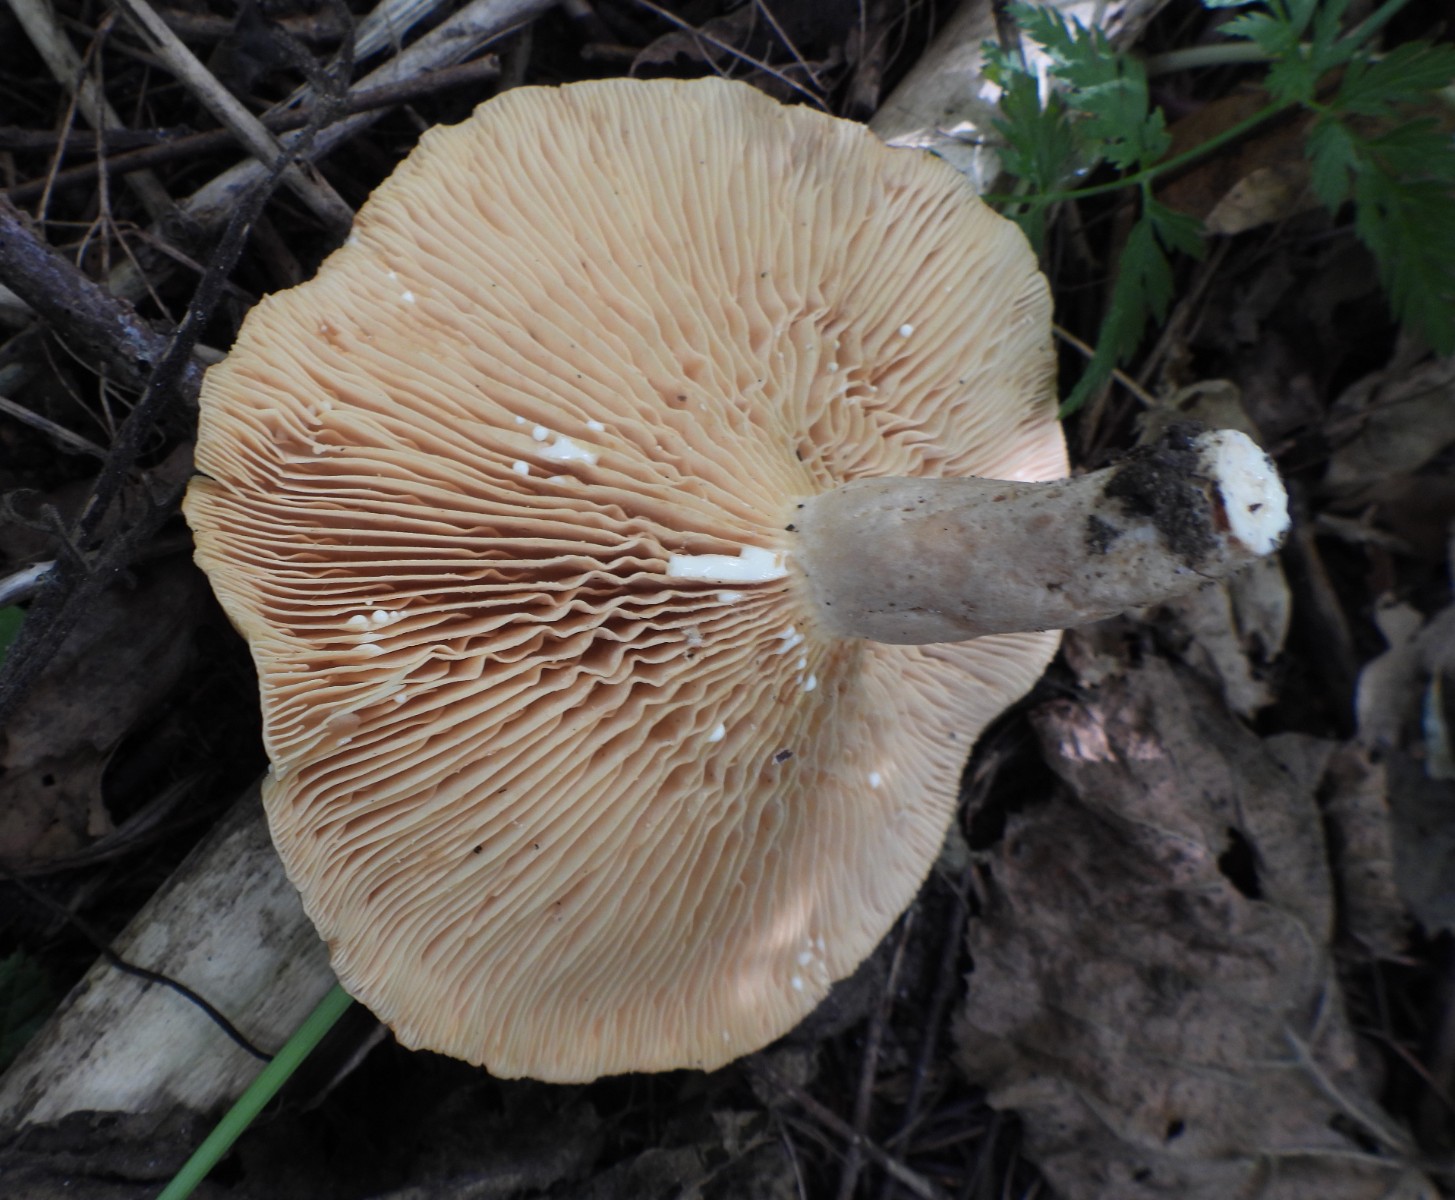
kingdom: Fungi
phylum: Basidiomycota
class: Agaricomycetes
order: Russulales
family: Russulaceae
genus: Lactarius
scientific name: Lactarius pyrogalus
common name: hassel-mælkehat
